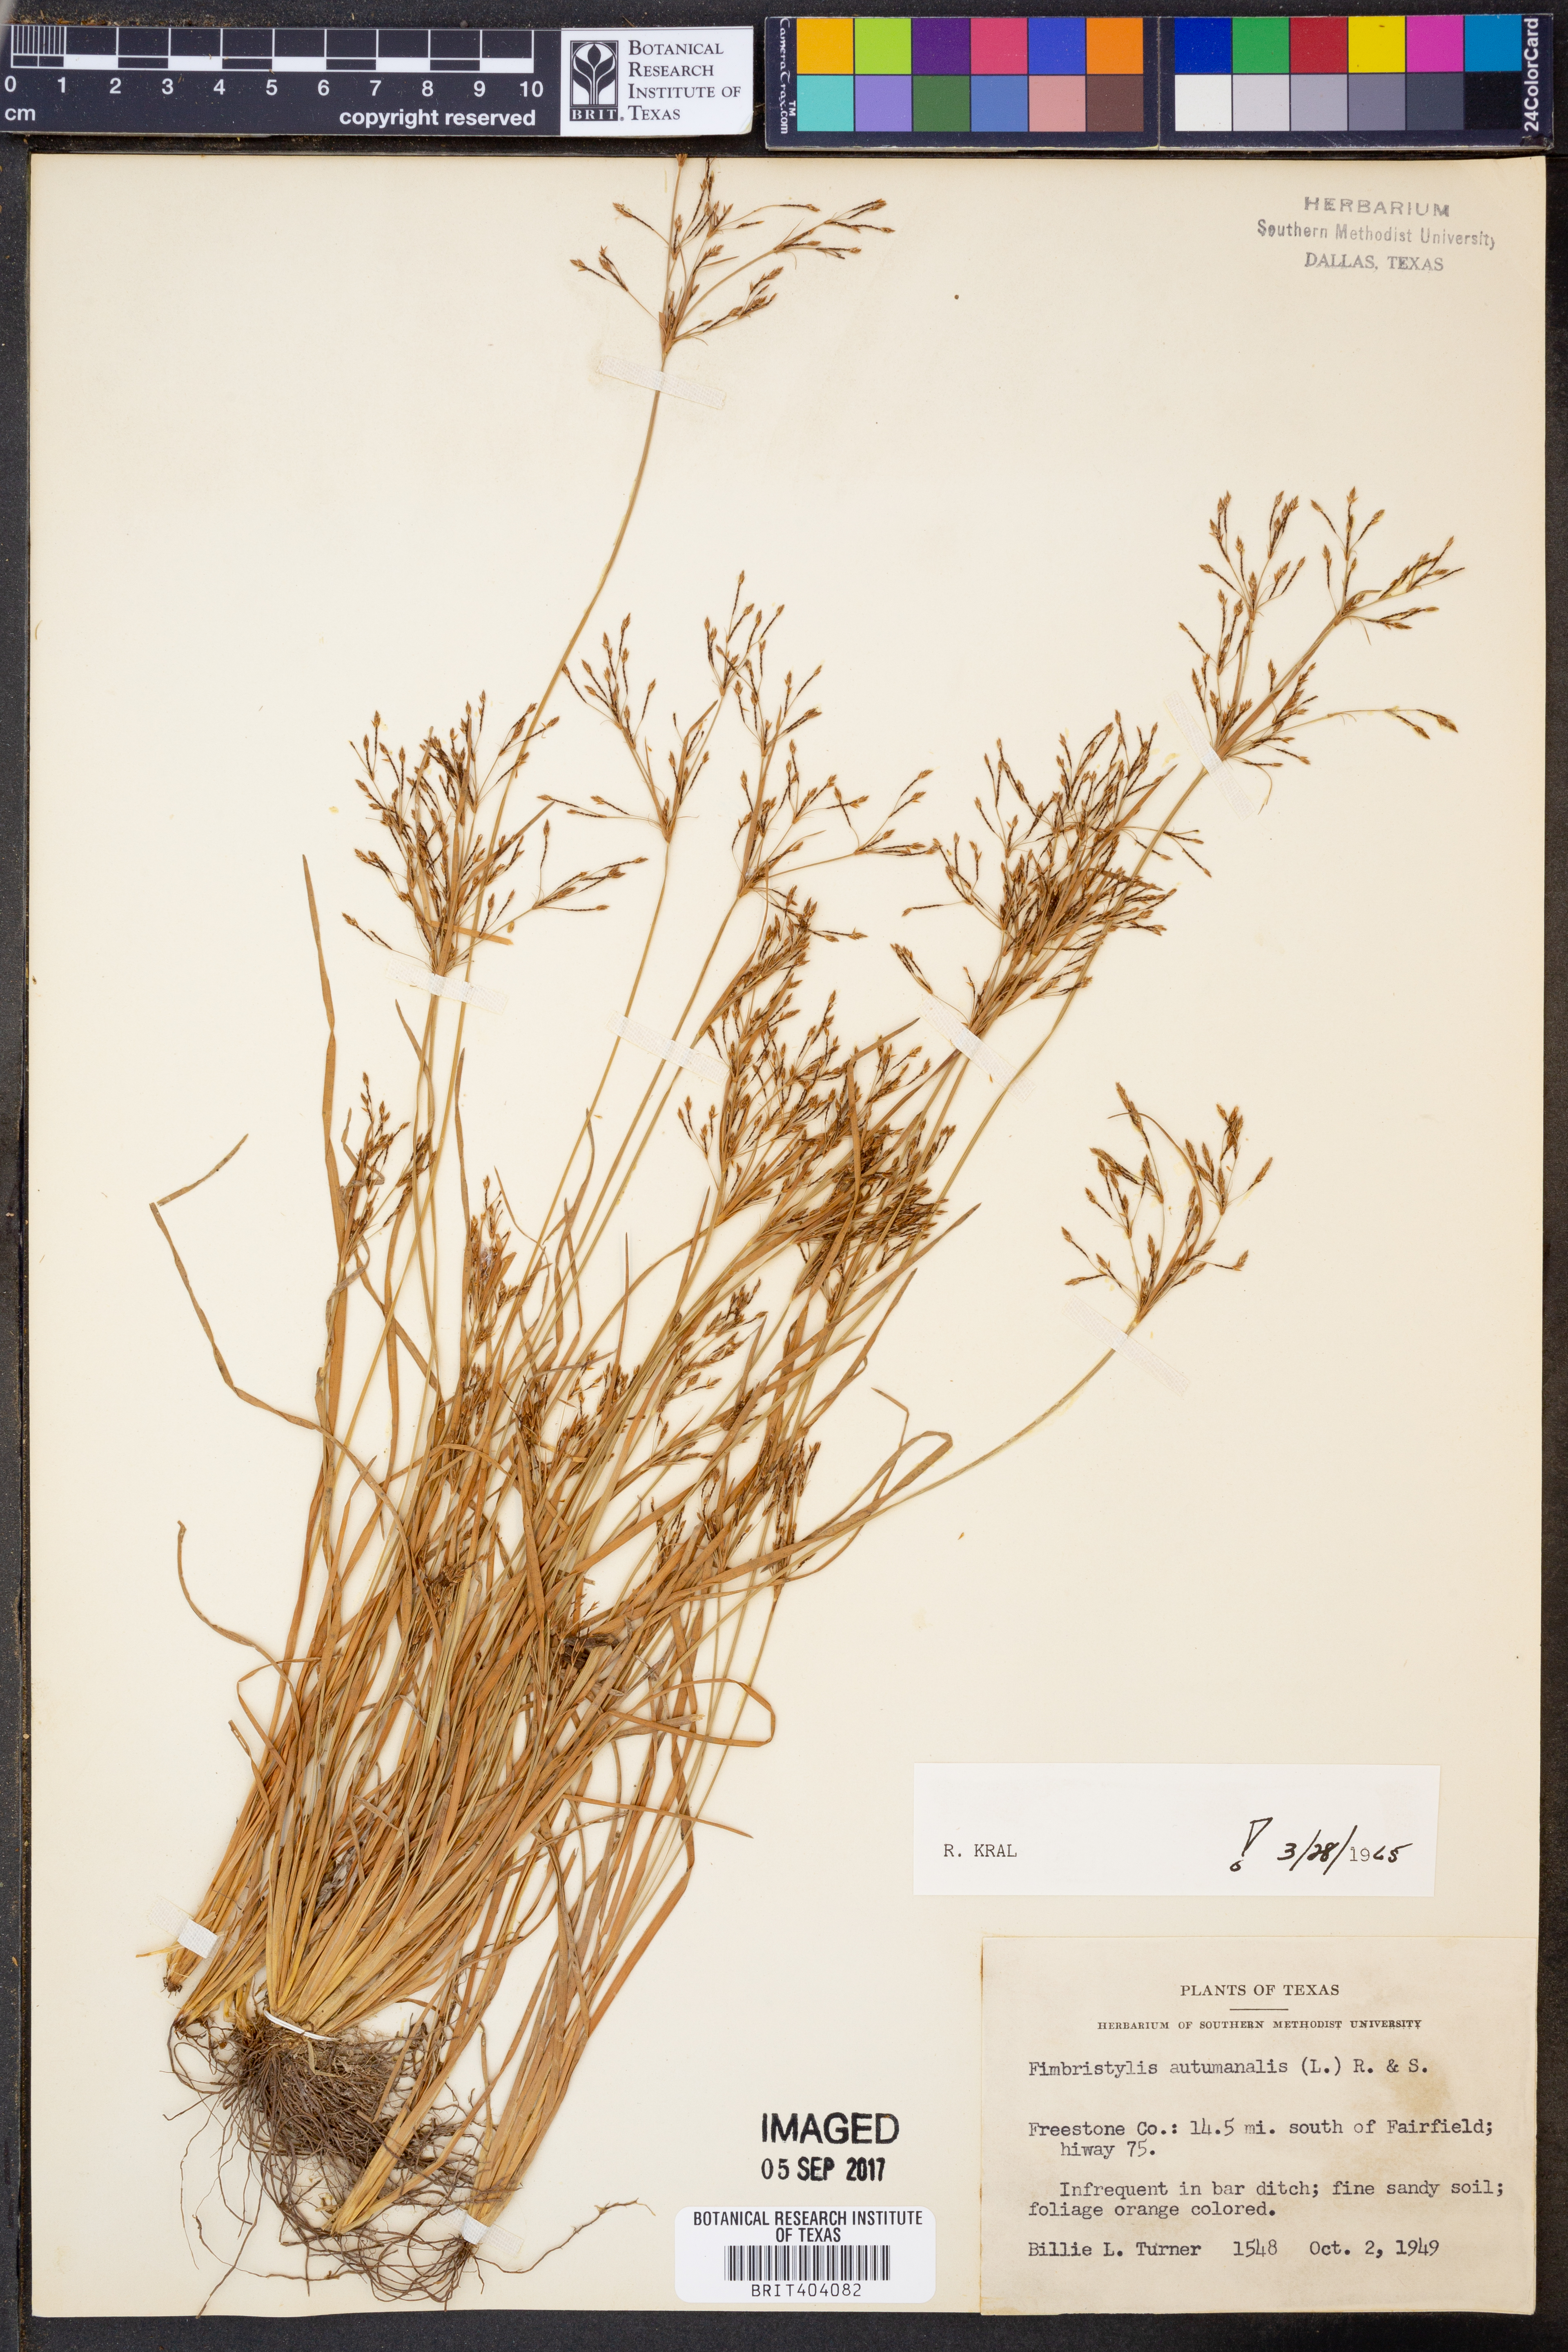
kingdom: Plantae
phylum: Tracheophyta
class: Liliopsida
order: Poales
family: Cyperaceae
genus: Fimbristylis
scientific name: Fimbristylis autumnalis
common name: Slender fimbristylis
